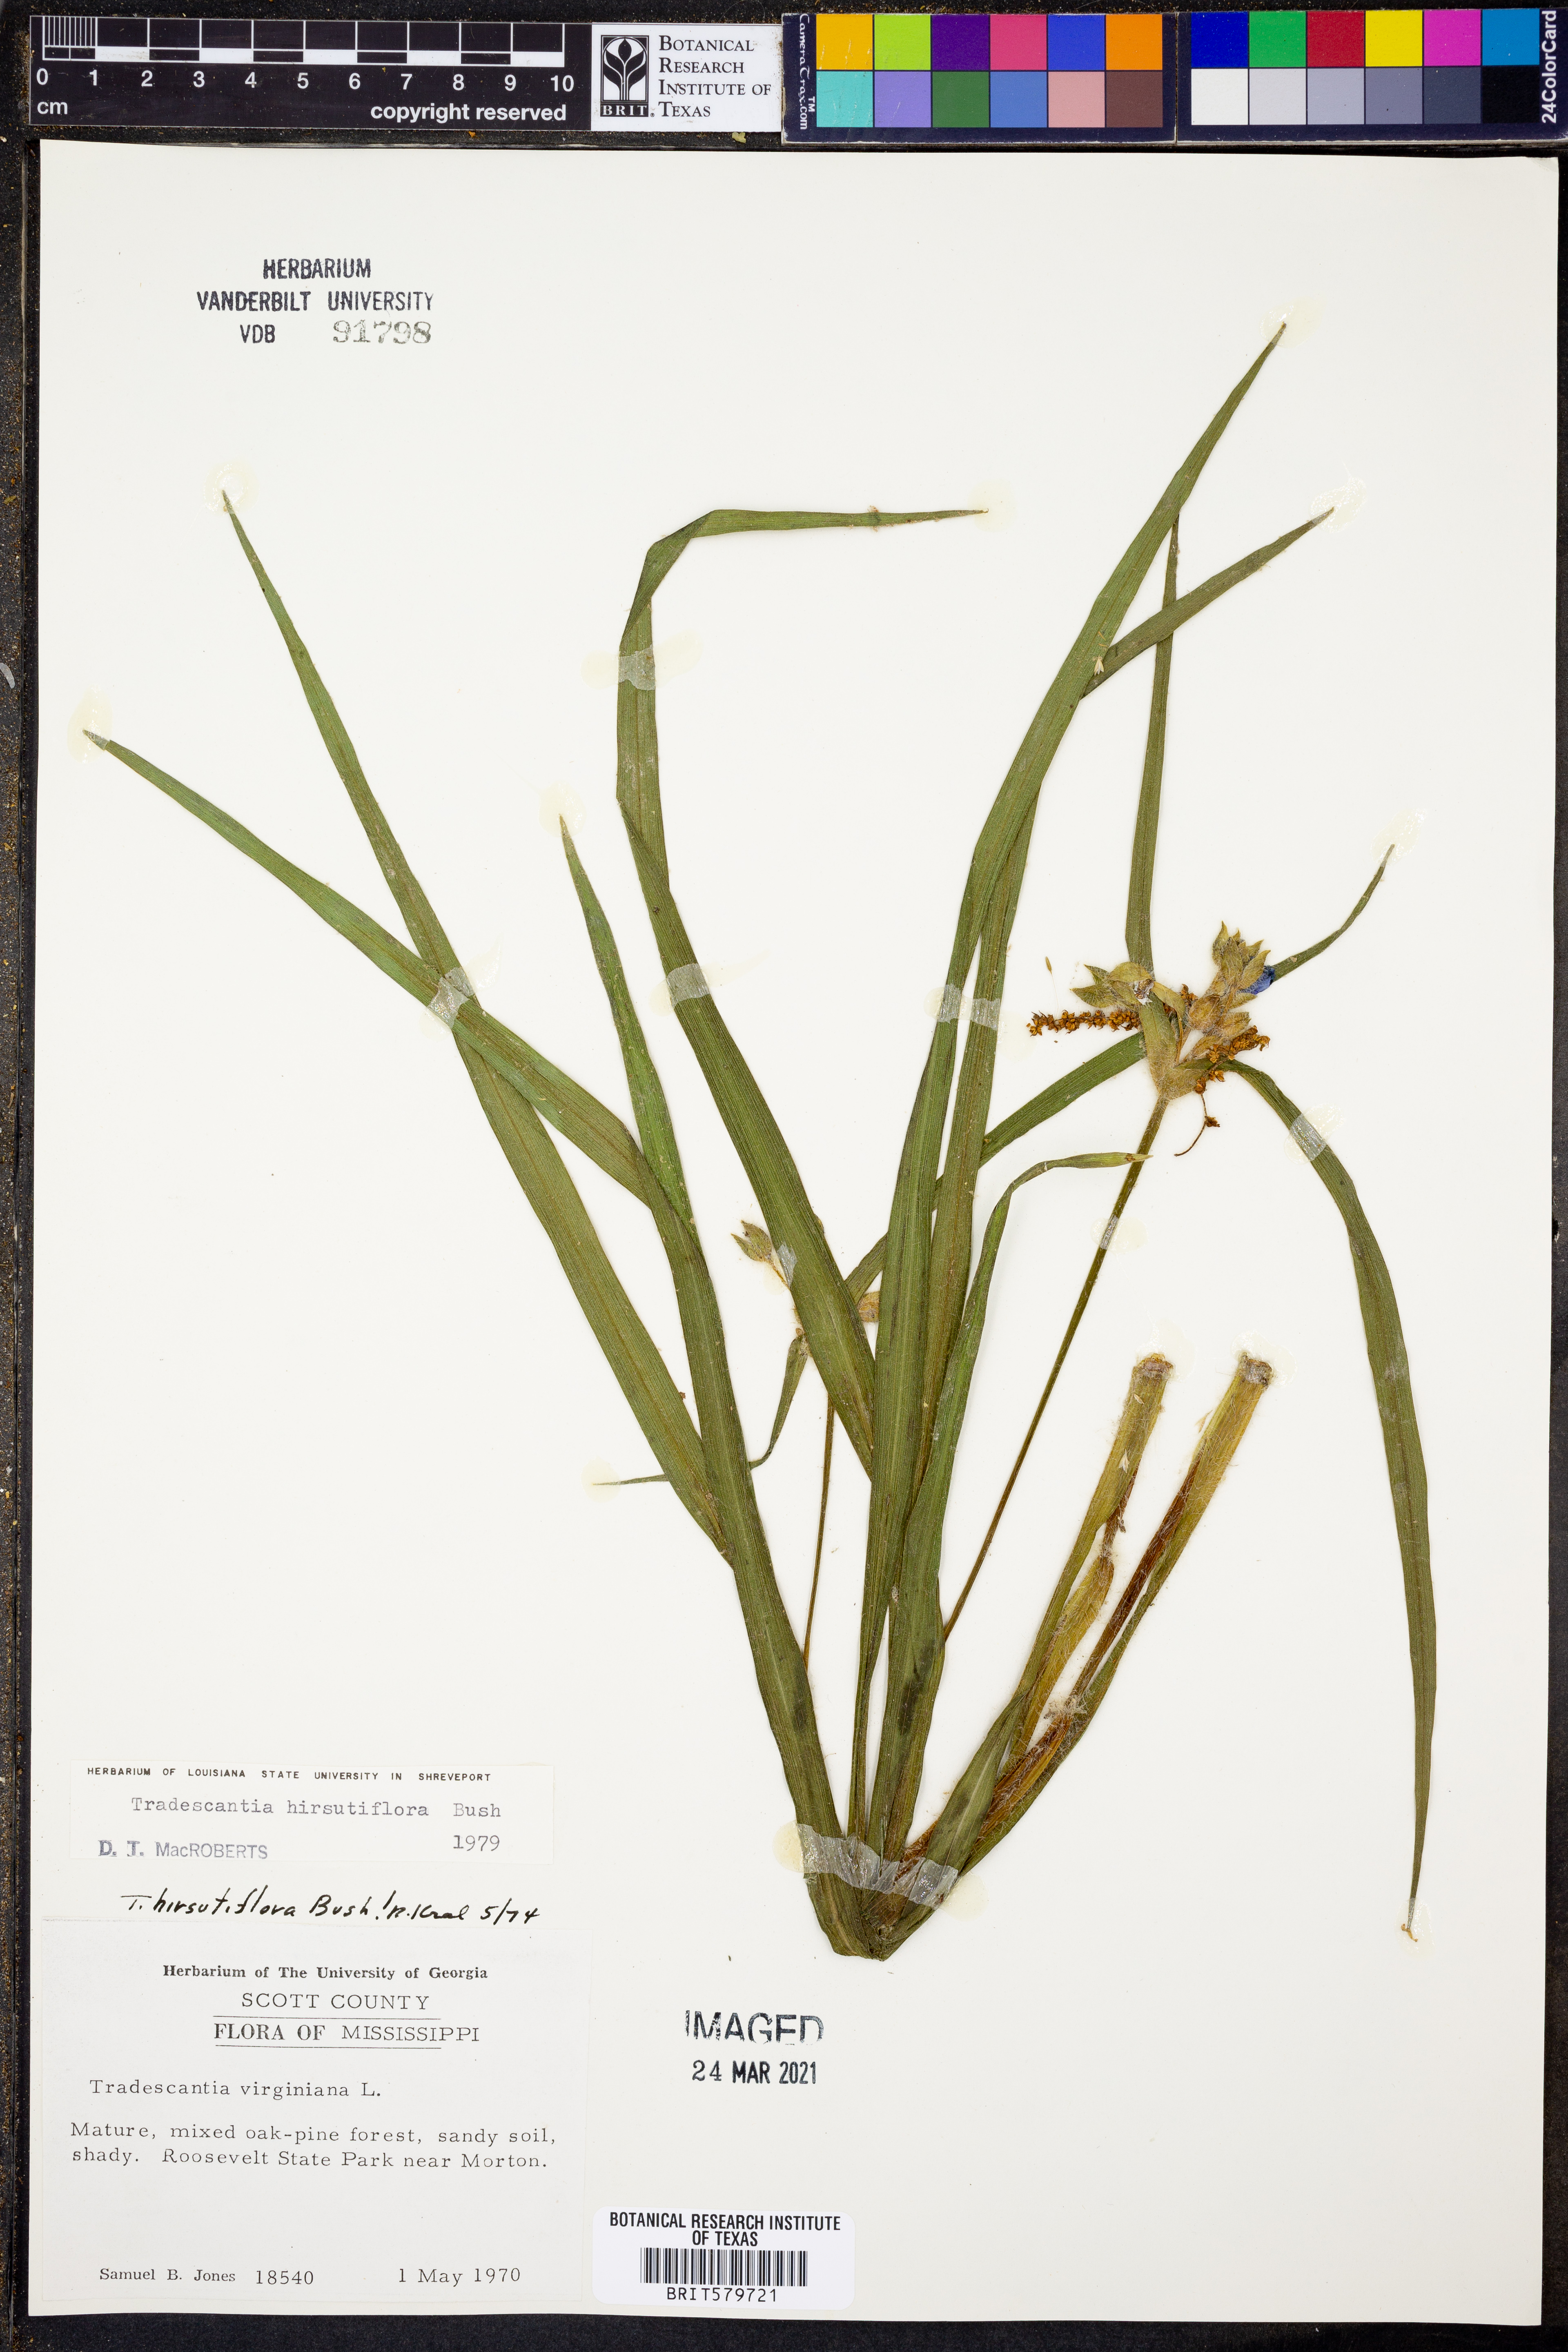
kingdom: Plantae
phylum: Tracheophyta
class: Liliopsida
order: Commelinales
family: Commelinaceae
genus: Tradescantia
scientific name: Tradescantia hirsutiflora
